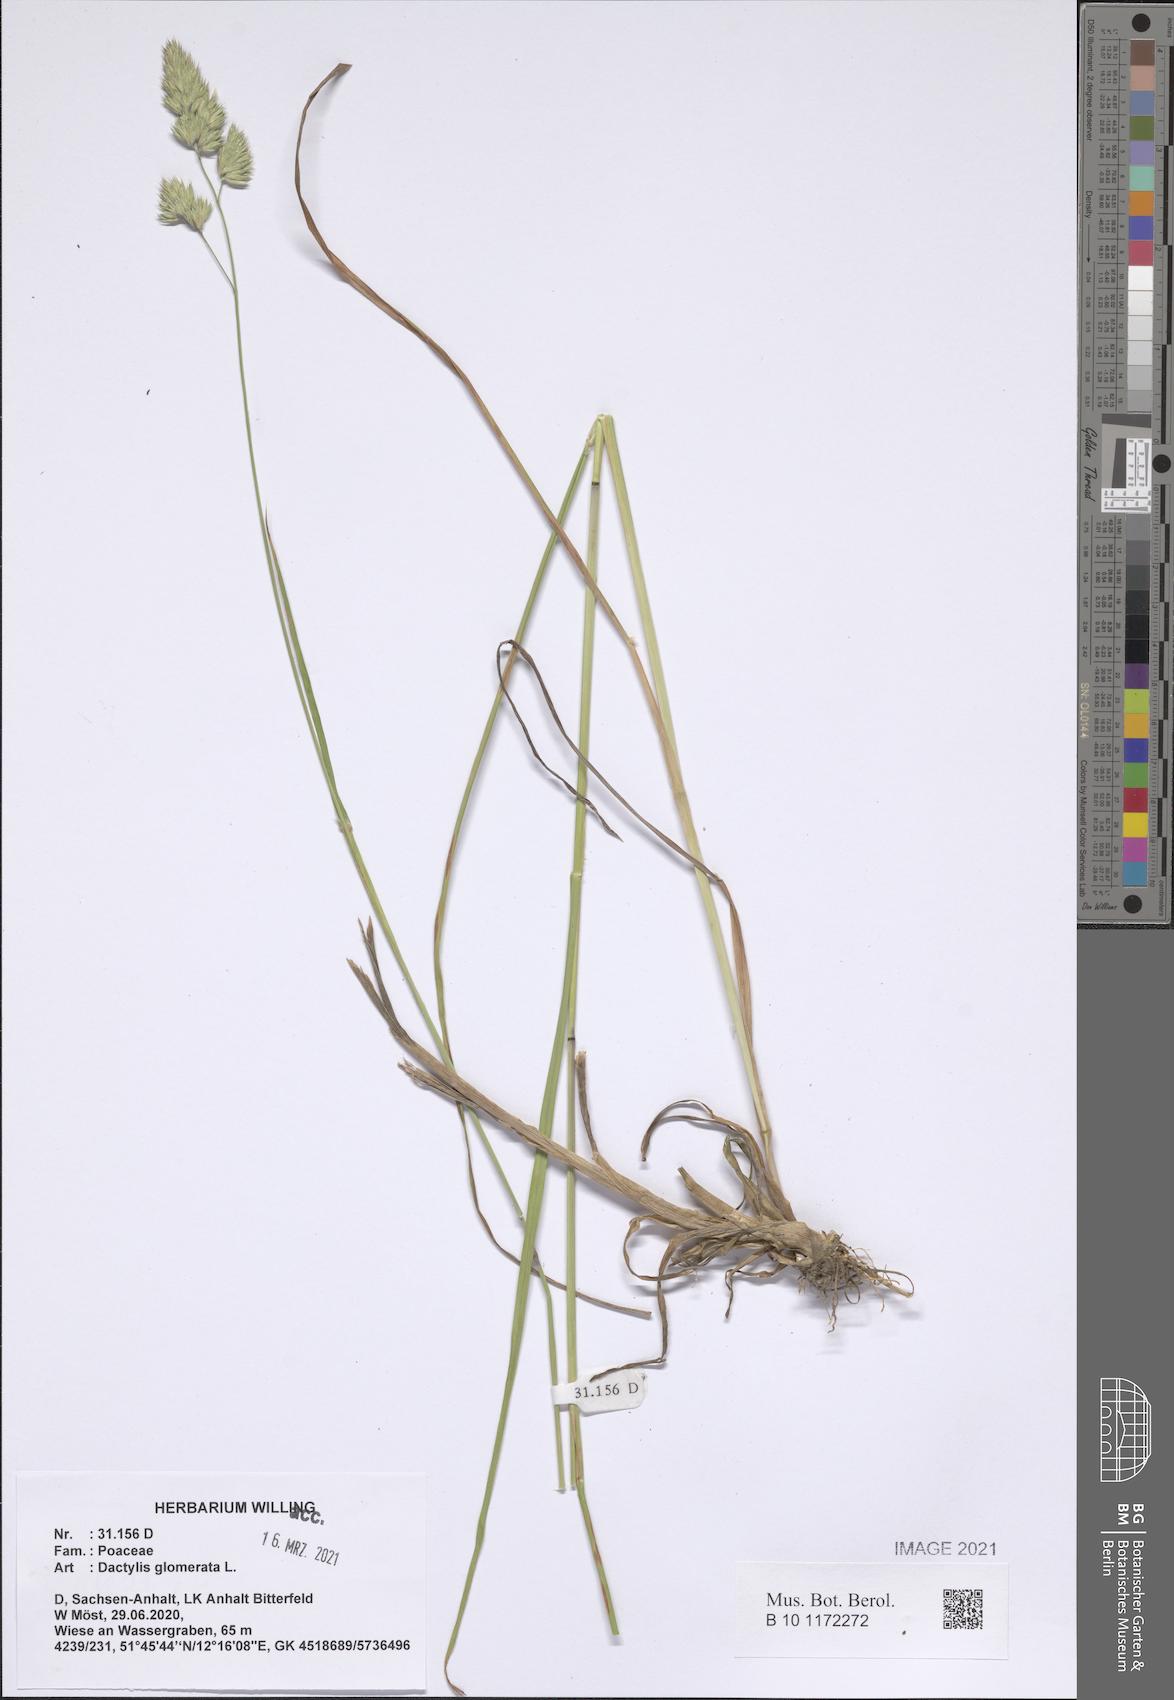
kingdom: Plantae
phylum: Tracheophyta
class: Liliopsida
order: Poales
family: Poaceae
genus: Dactylis
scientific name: Dactylis glomerata
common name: Orchardgrass
